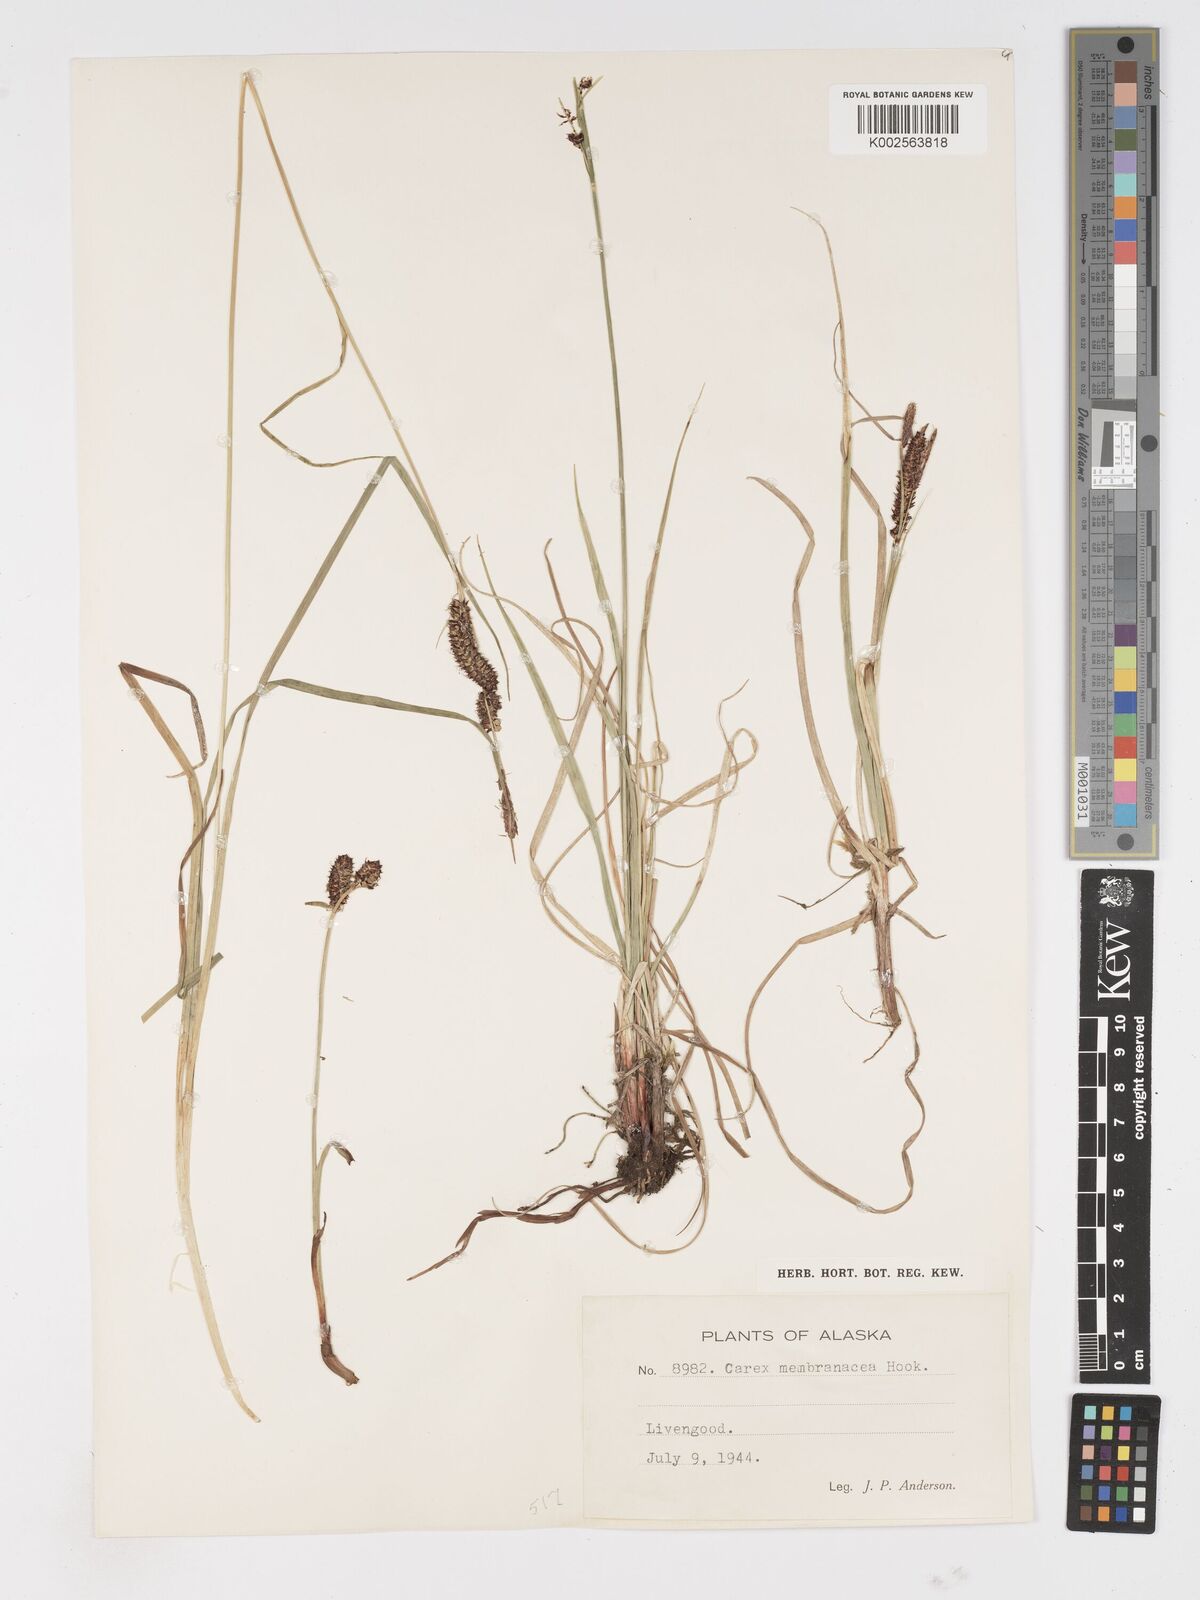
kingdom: Plantae
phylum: Tracheophyta
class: Liliopsida
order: Poales
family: Cyperaceae
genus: Carex
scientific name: Carex membranacea
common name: Fragile sedge
